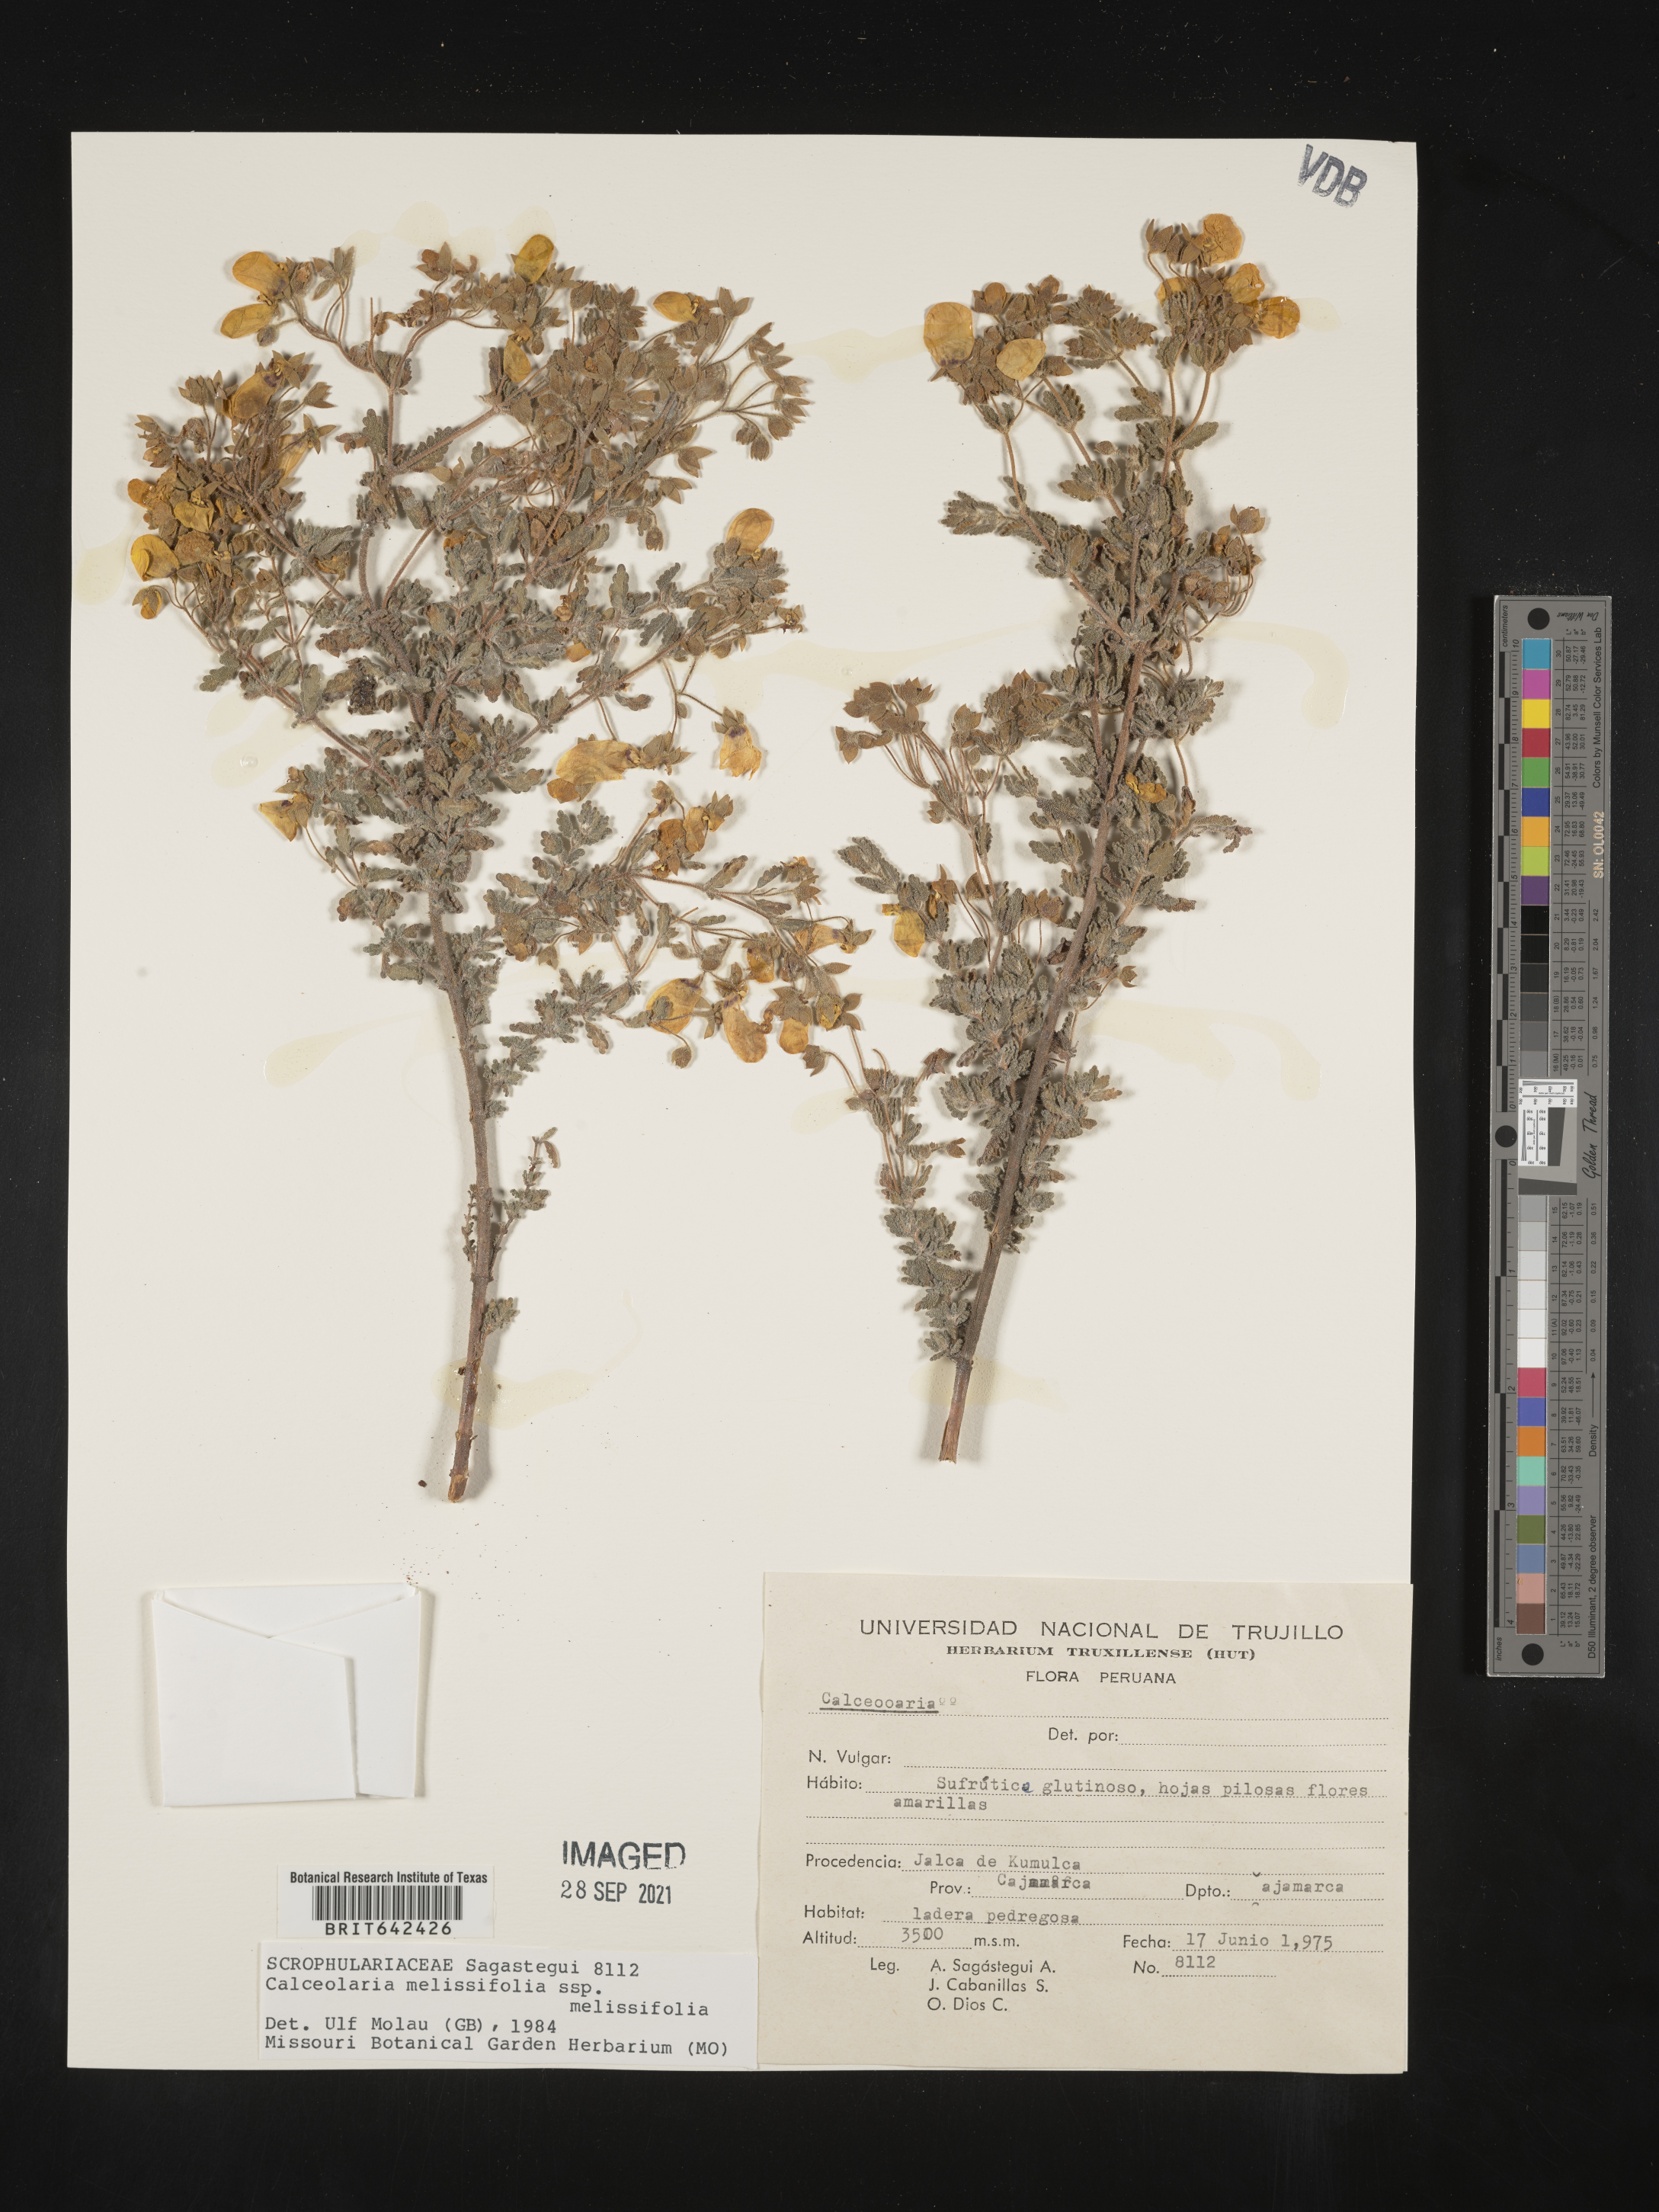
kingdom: Plantae
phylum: Tracheophyta
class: Magnoliopsida
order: Lamiales
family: Calceolariaceae
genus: Calceolaria
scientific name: Calceolaria melissifolia
